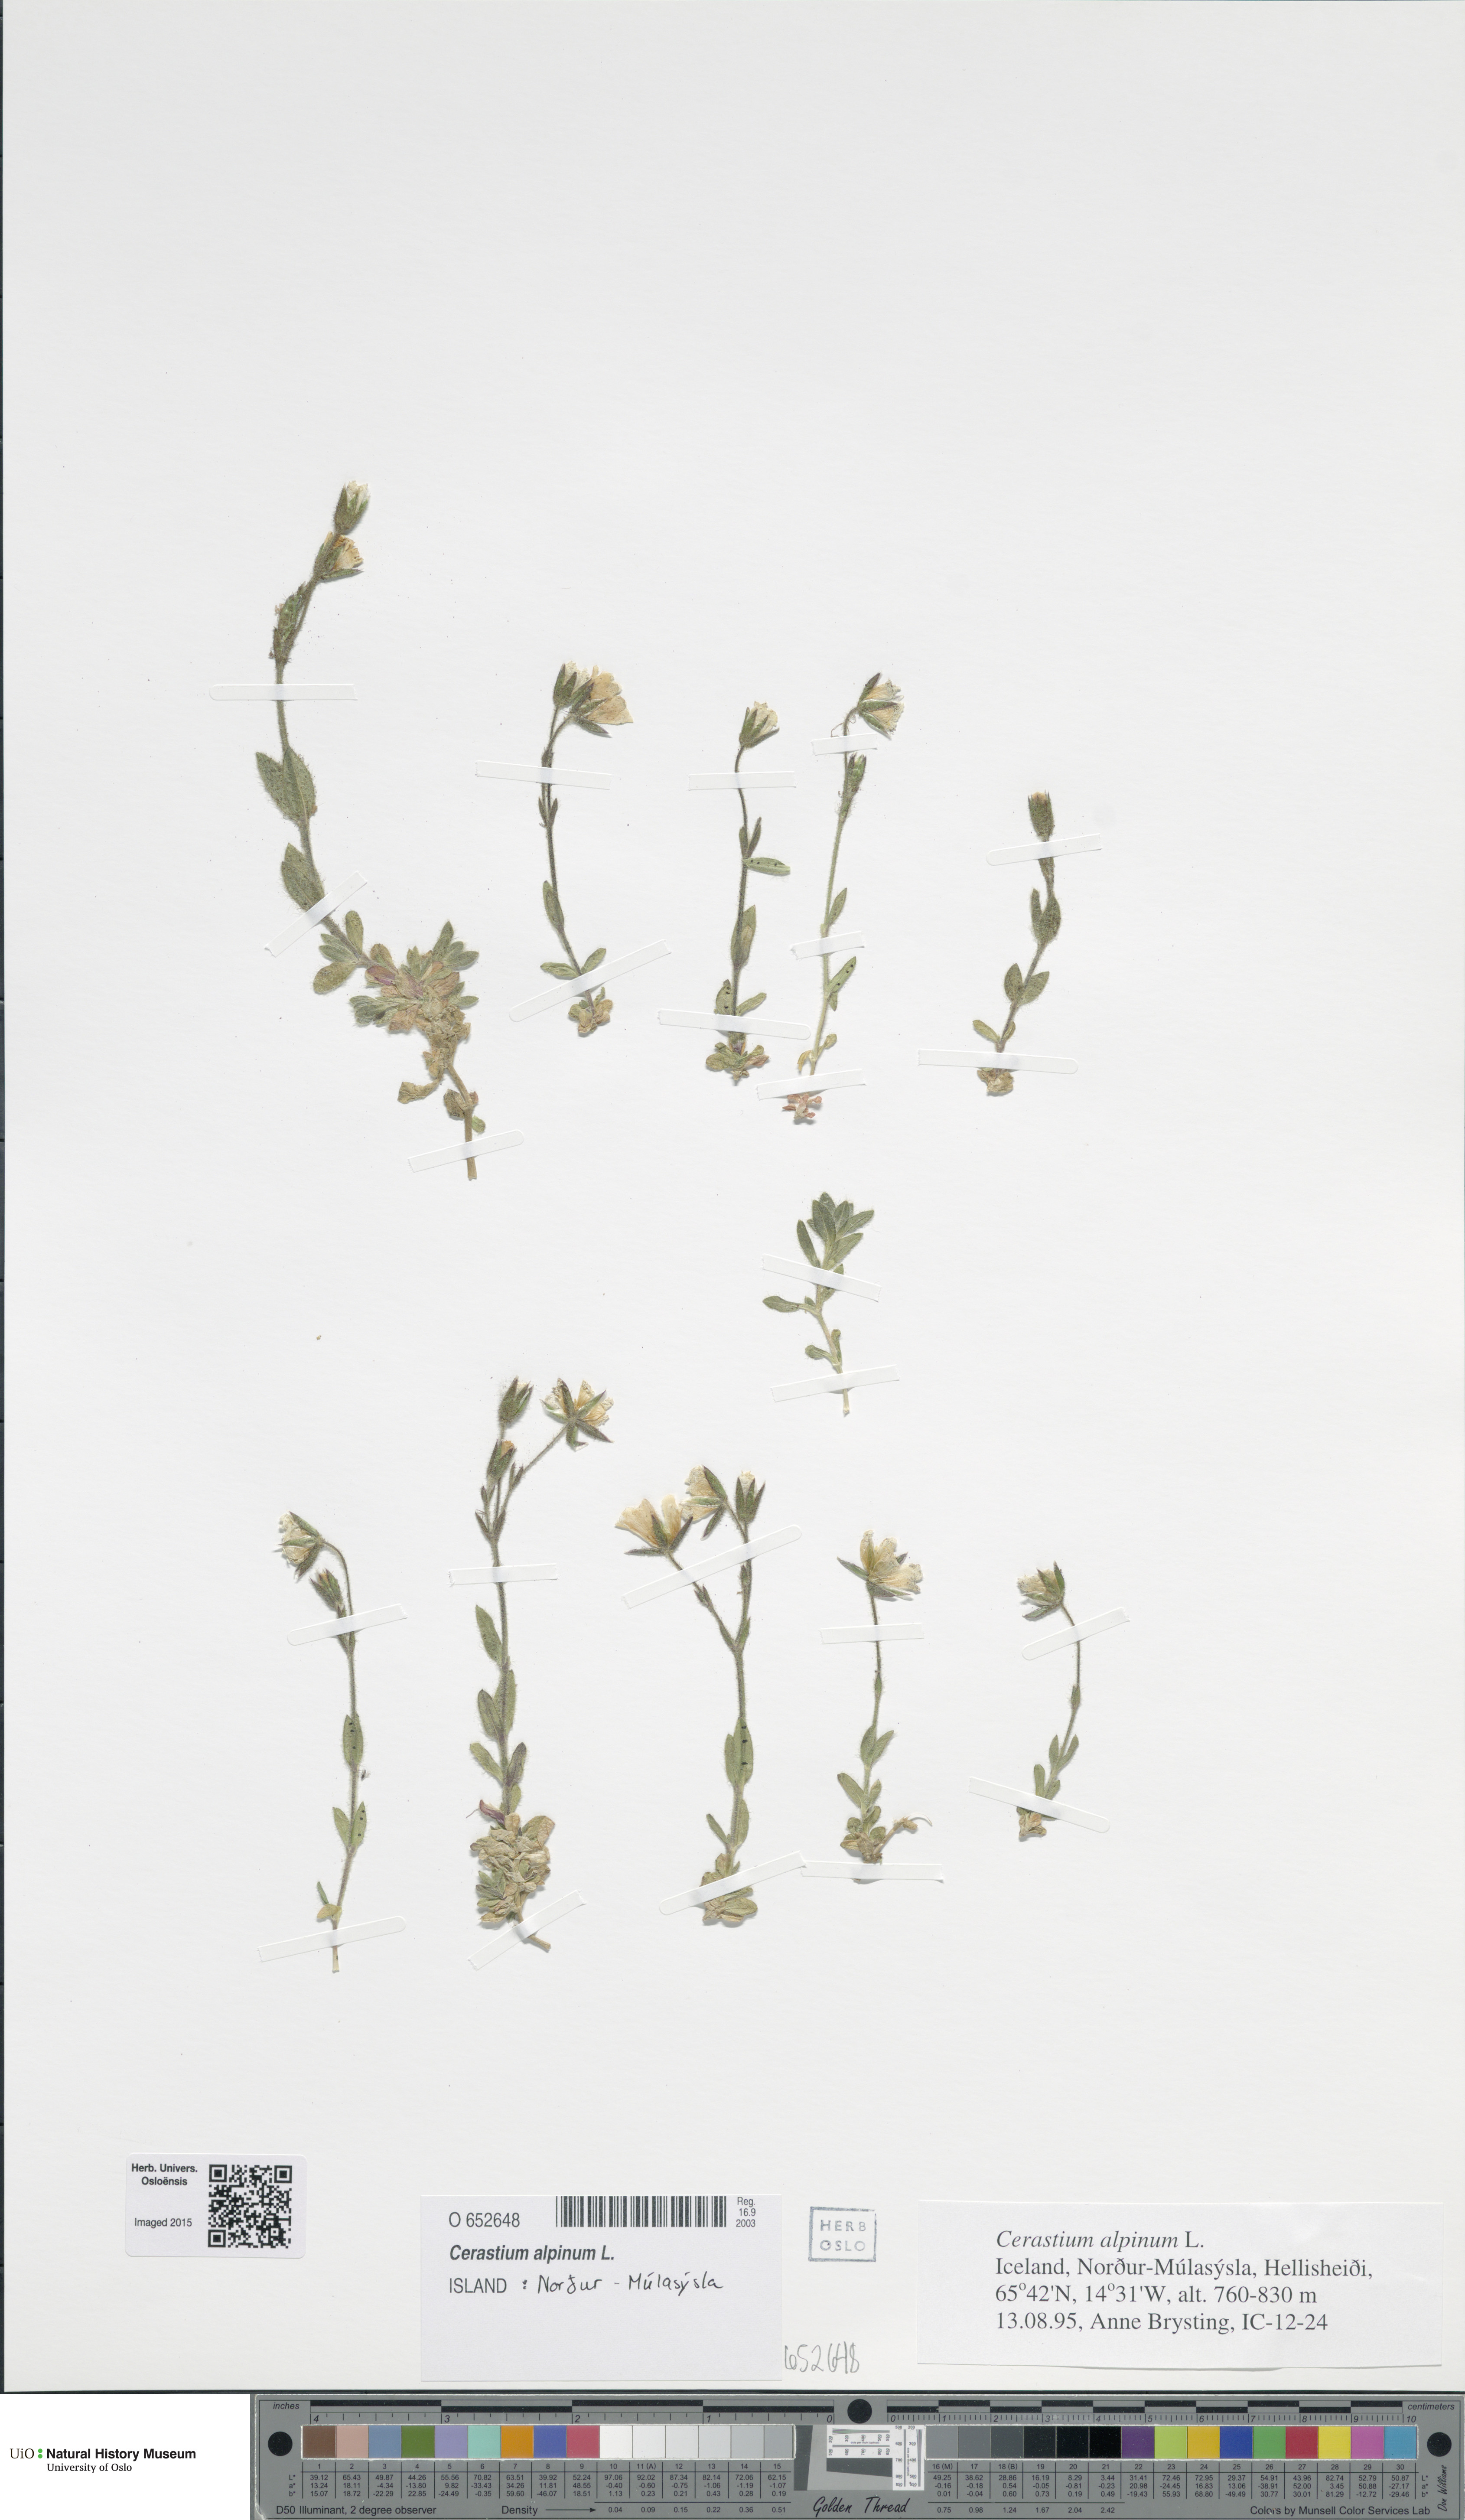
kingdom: Plantae
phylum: Tracheophyta
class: Magnoliopsida
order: Caryophyllales
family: Caryophyllaceae
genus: Cerastium
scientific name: Cerastium alpinum
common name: Alpine mouse-ear
